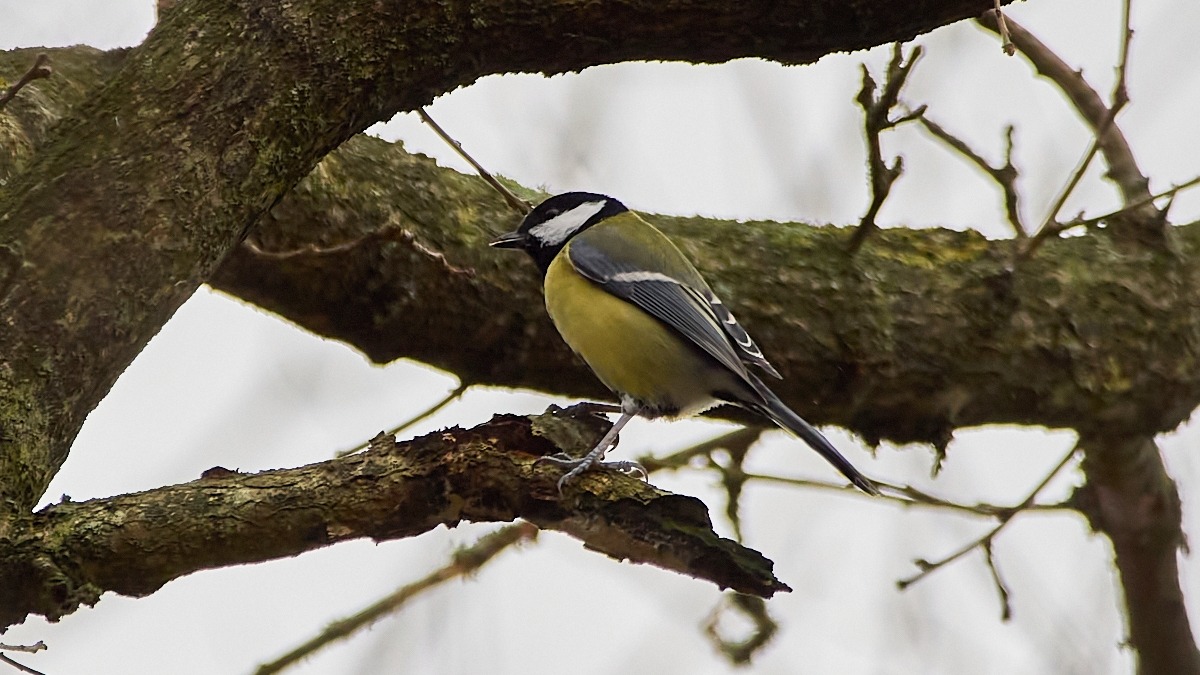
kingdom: Animalia
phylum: Chordata
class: Aves
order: Passeriformes
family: Paridae
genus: Parus
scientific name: Parus major
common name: Musvit
